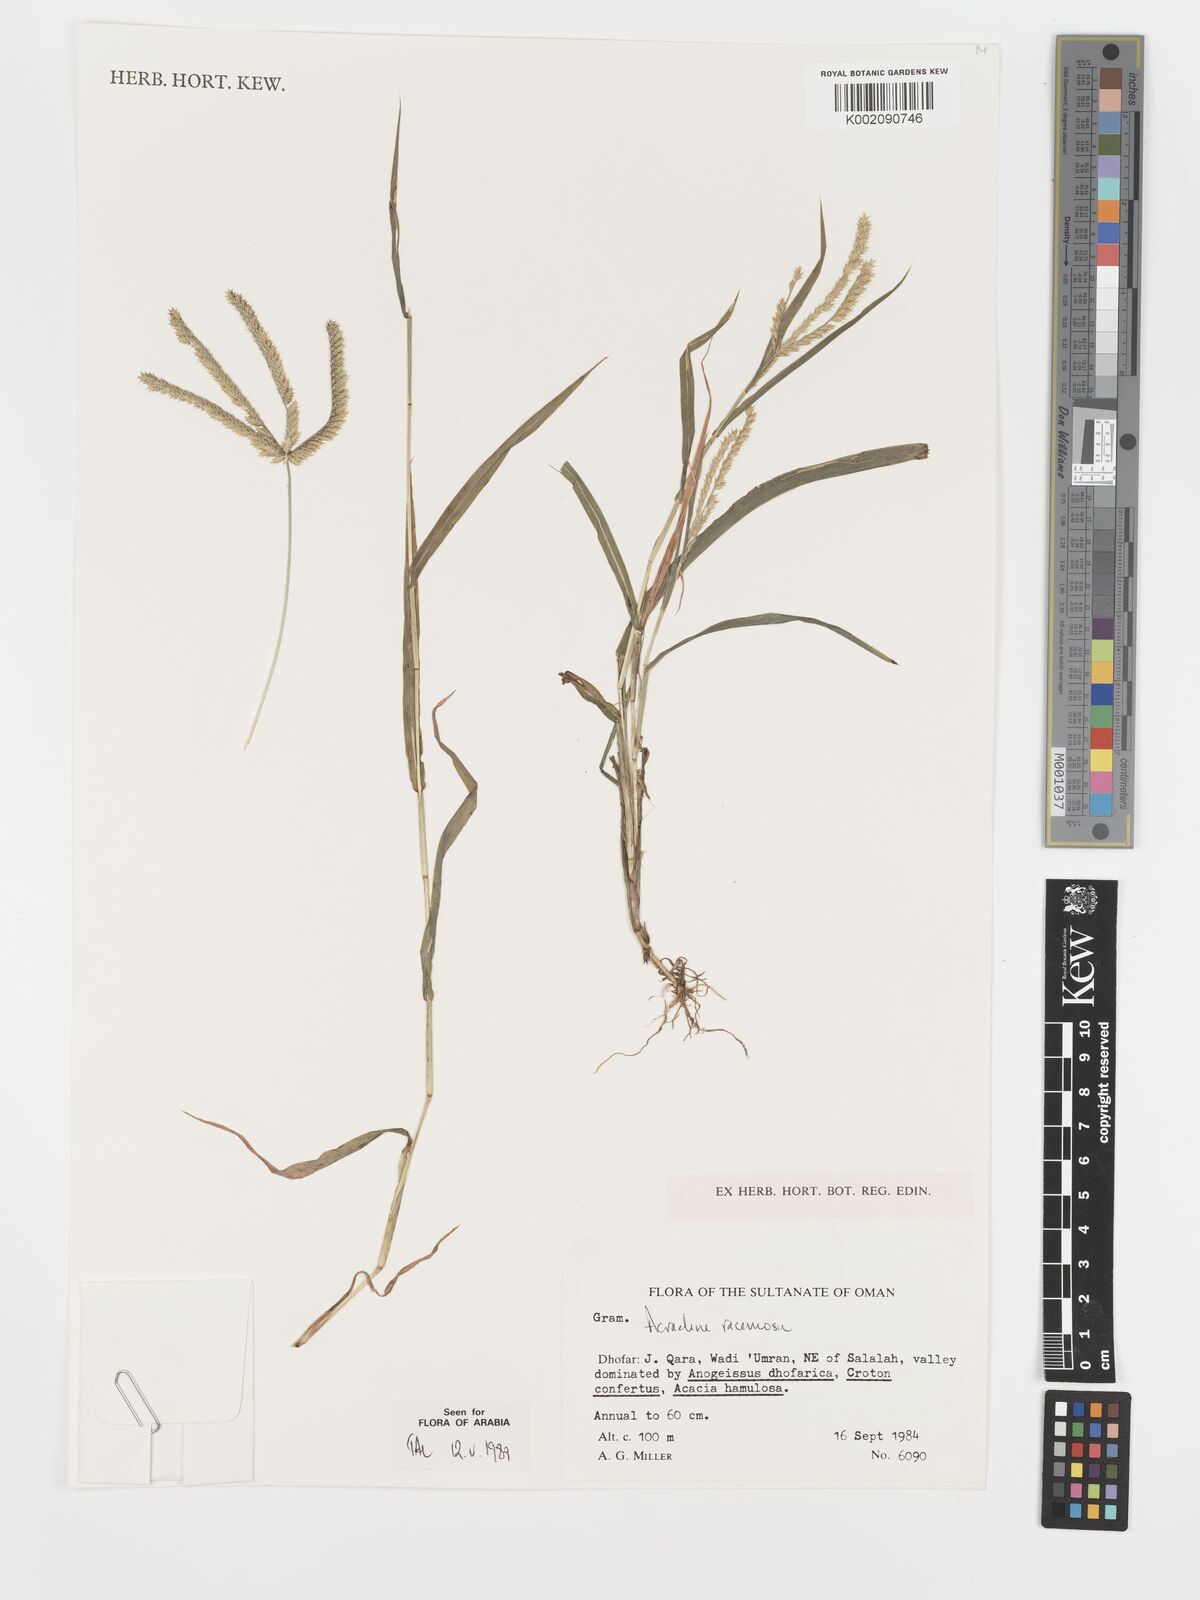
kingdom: Plantae
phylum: Tracheophyta
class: Liliopsida
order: Poales
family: Poaceae
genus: Acrachne
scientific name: Acrachne racemosa
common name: Goosegrass
